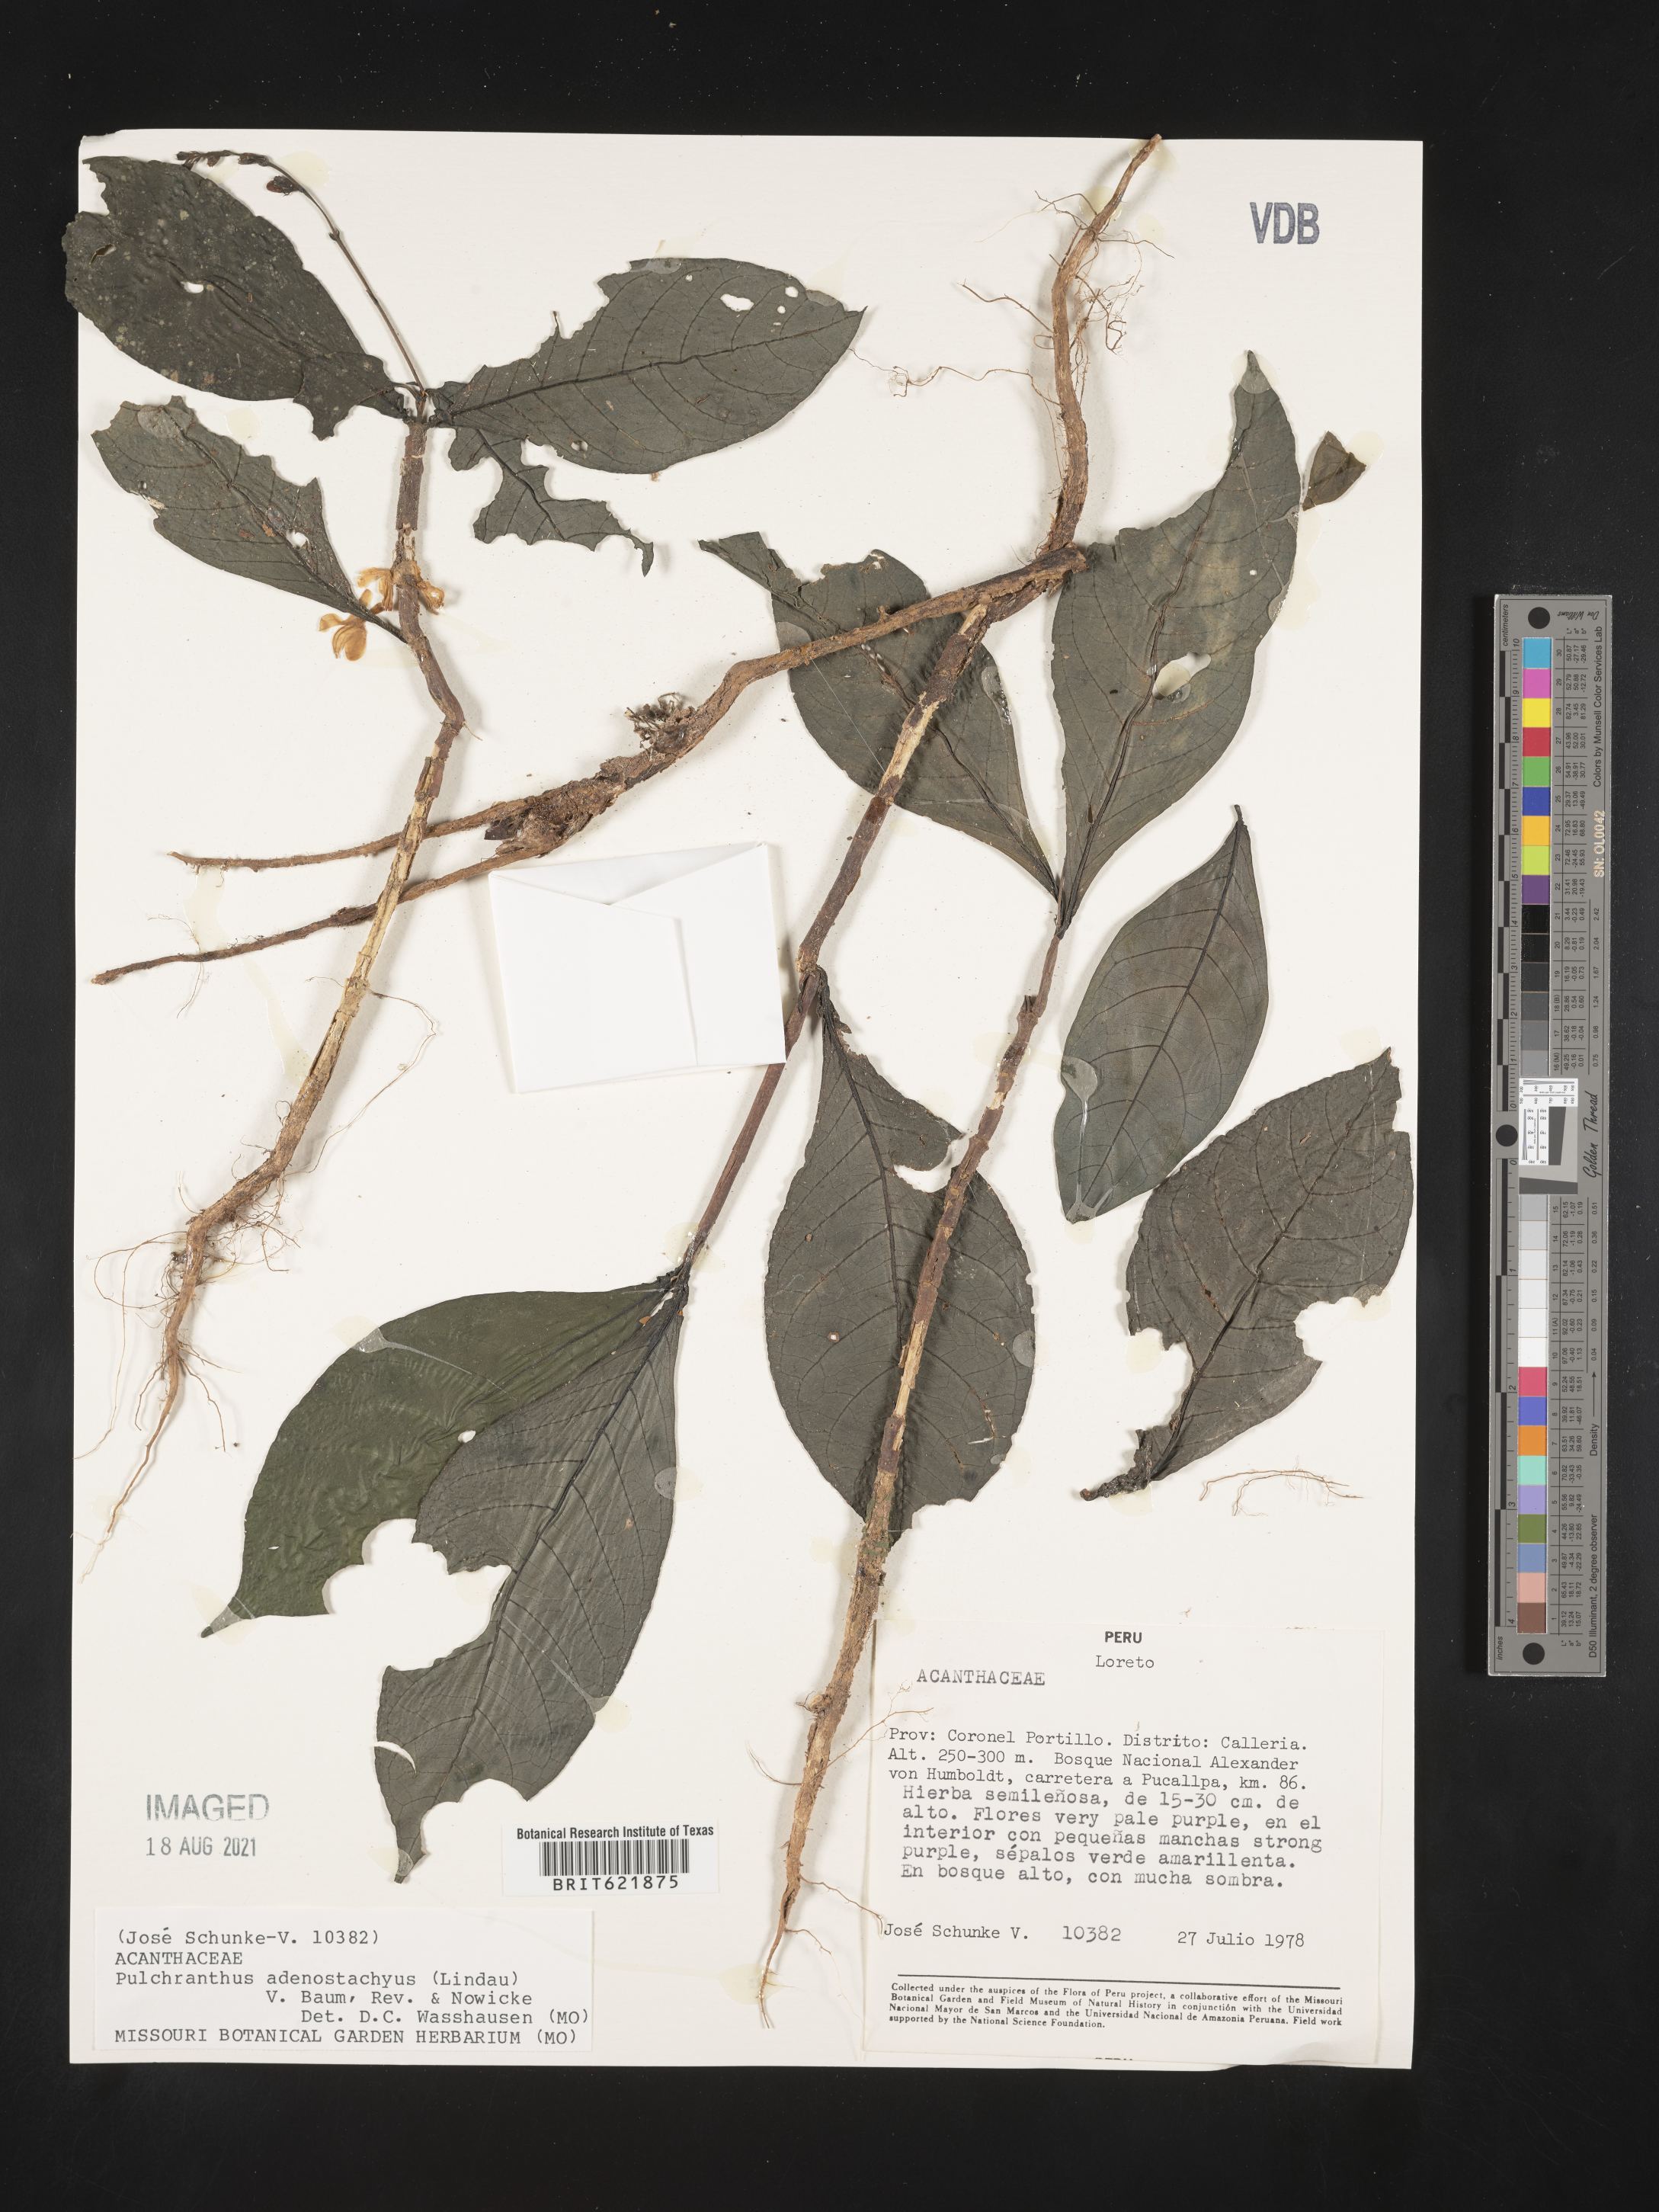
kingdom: Plantae
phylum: Tracheophyta
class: Magnoliopsida
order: Lamiales
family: Acanthaceae
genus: Pulchranthus
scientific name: Pulchranthus adenostachyus
